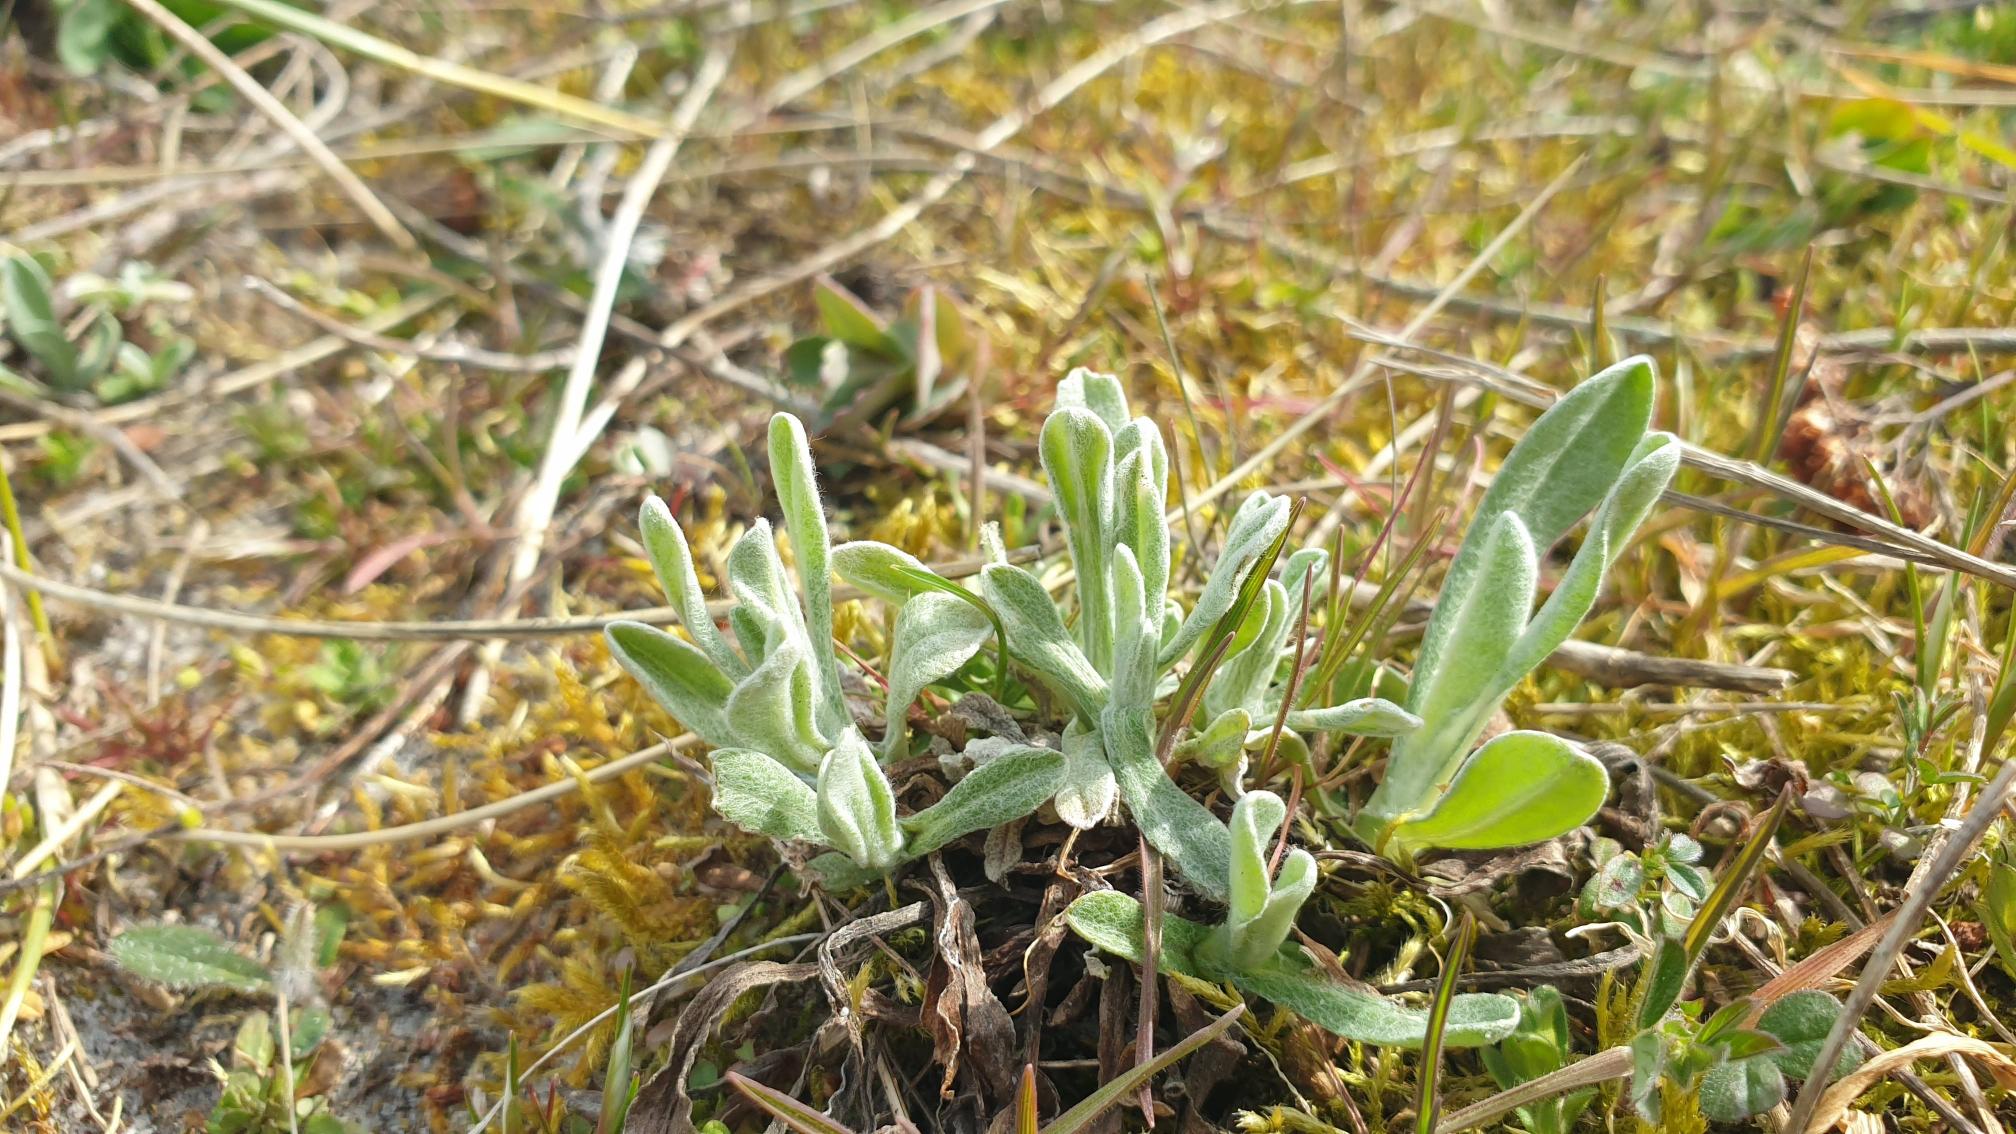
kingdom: Plantae
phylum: Tracheophyta
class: Magnoliopsida
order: Asterales
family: Asteraceae
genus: Helichrysum
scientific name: Helichrysum arenarium
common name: Gul evighedsblomst
